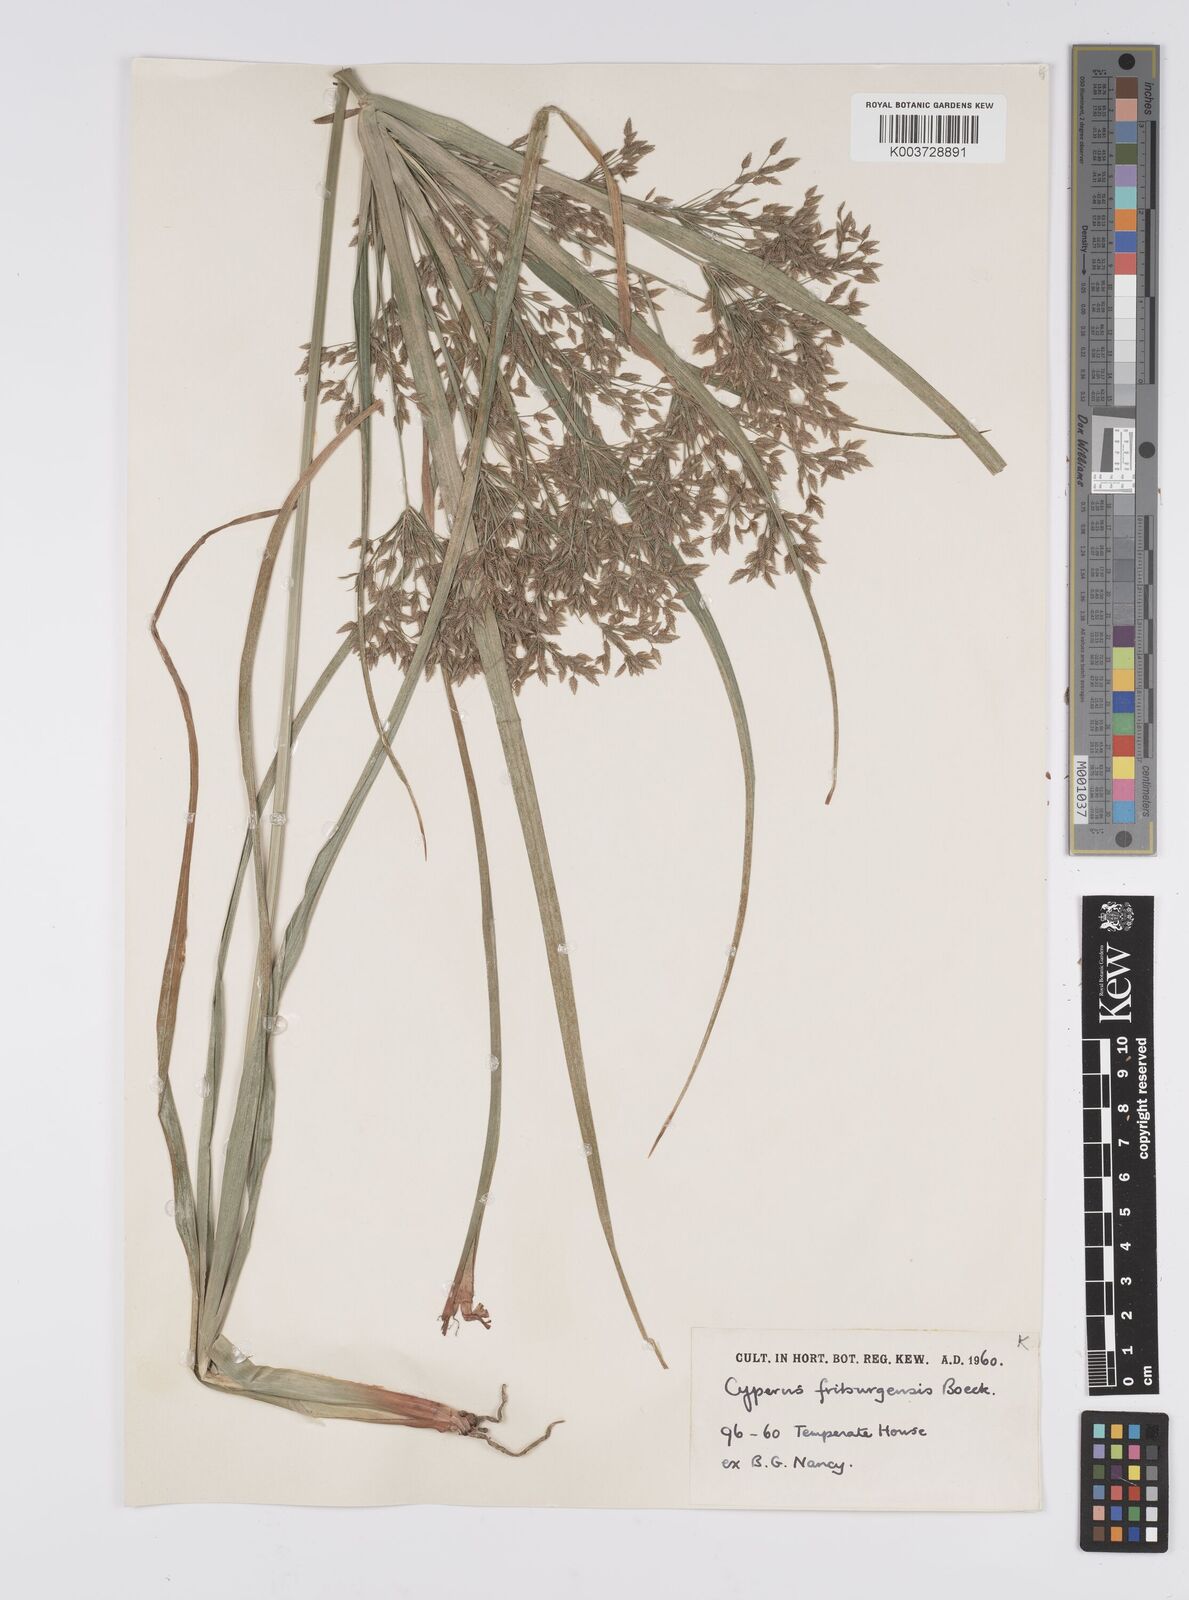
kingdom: Plantae
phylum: Tracheophyta
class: Liliopsida
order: Poales
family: Cyperaceae
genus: Cyperus
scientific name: Cyperus friburgensis
